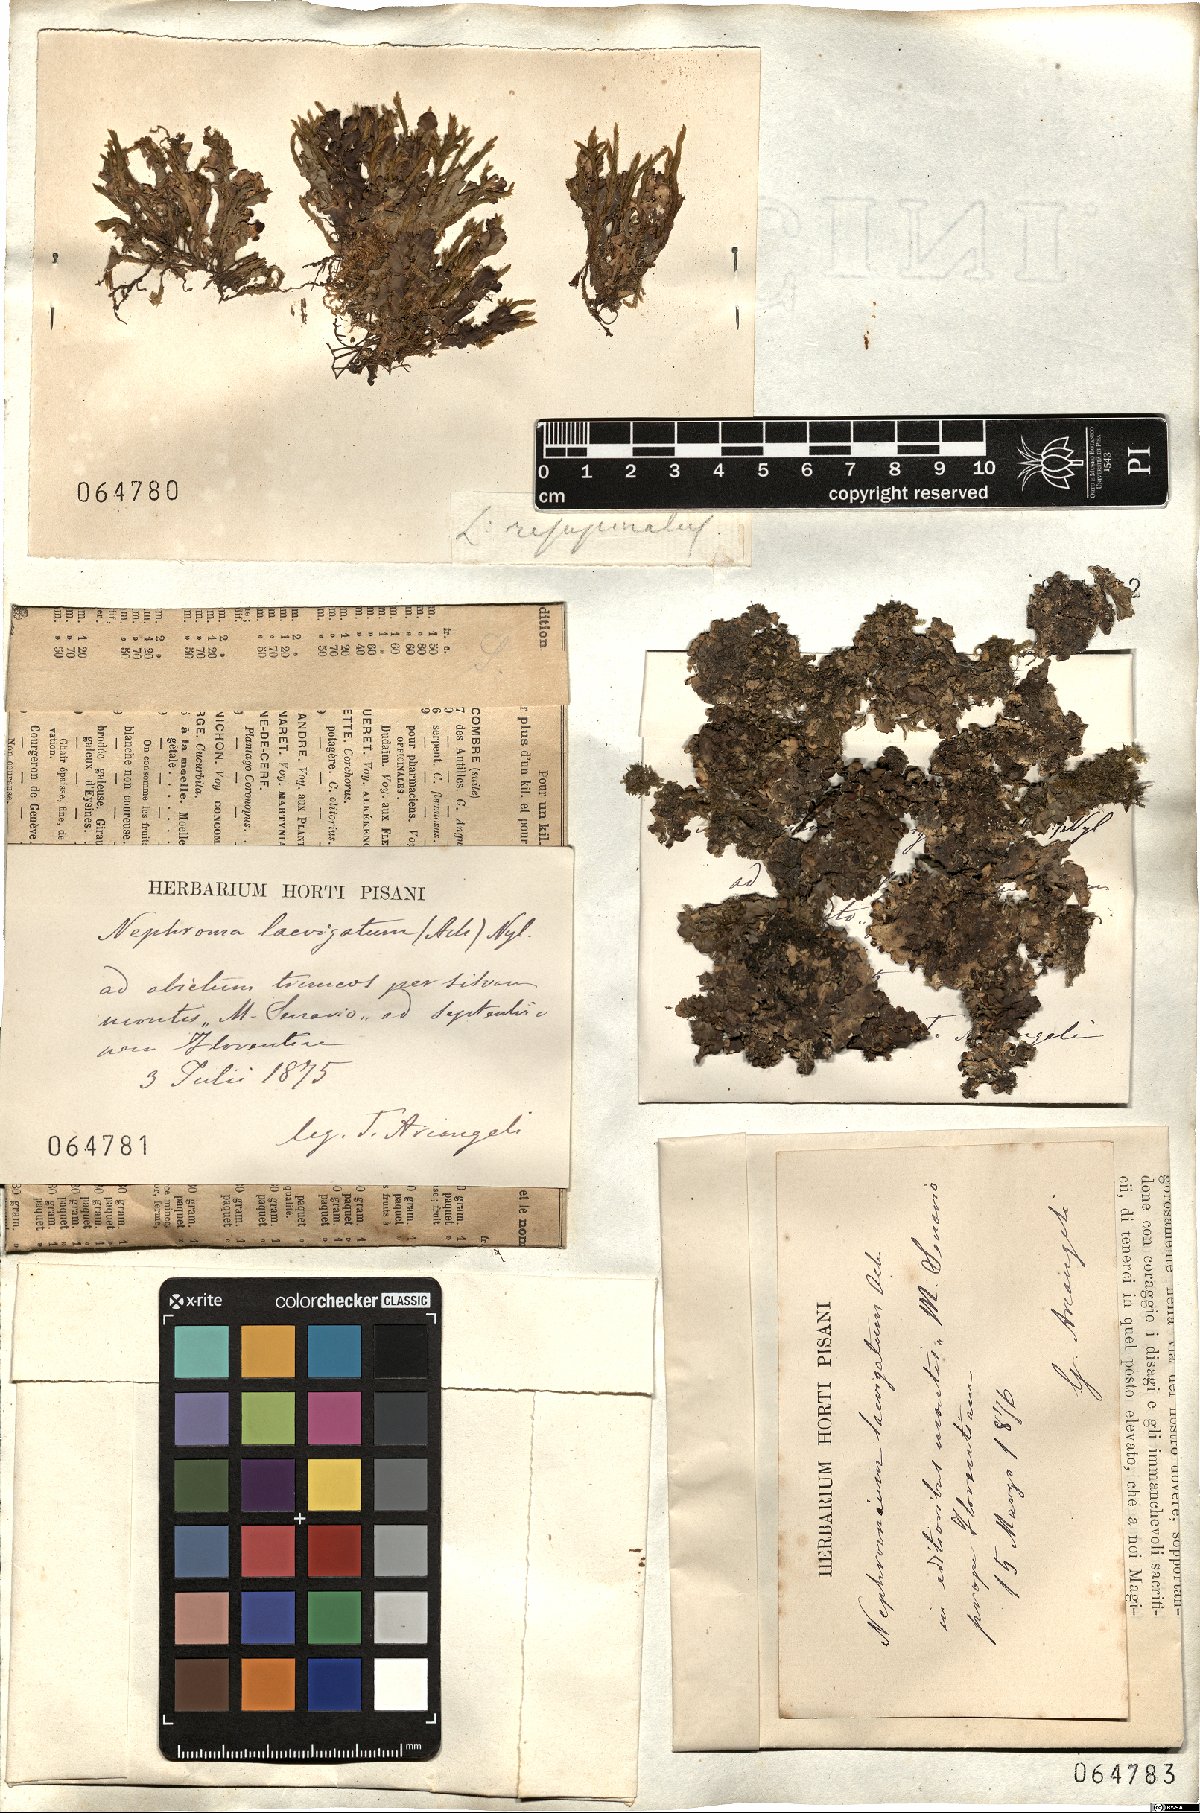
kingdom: Fungi
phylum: Ascomycota
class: Lecanoromycetes
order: Peltigerales
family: Nephromataceae
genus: Nephroma
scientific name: Nephroma laevigatum
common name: Mustard kidney lichen
